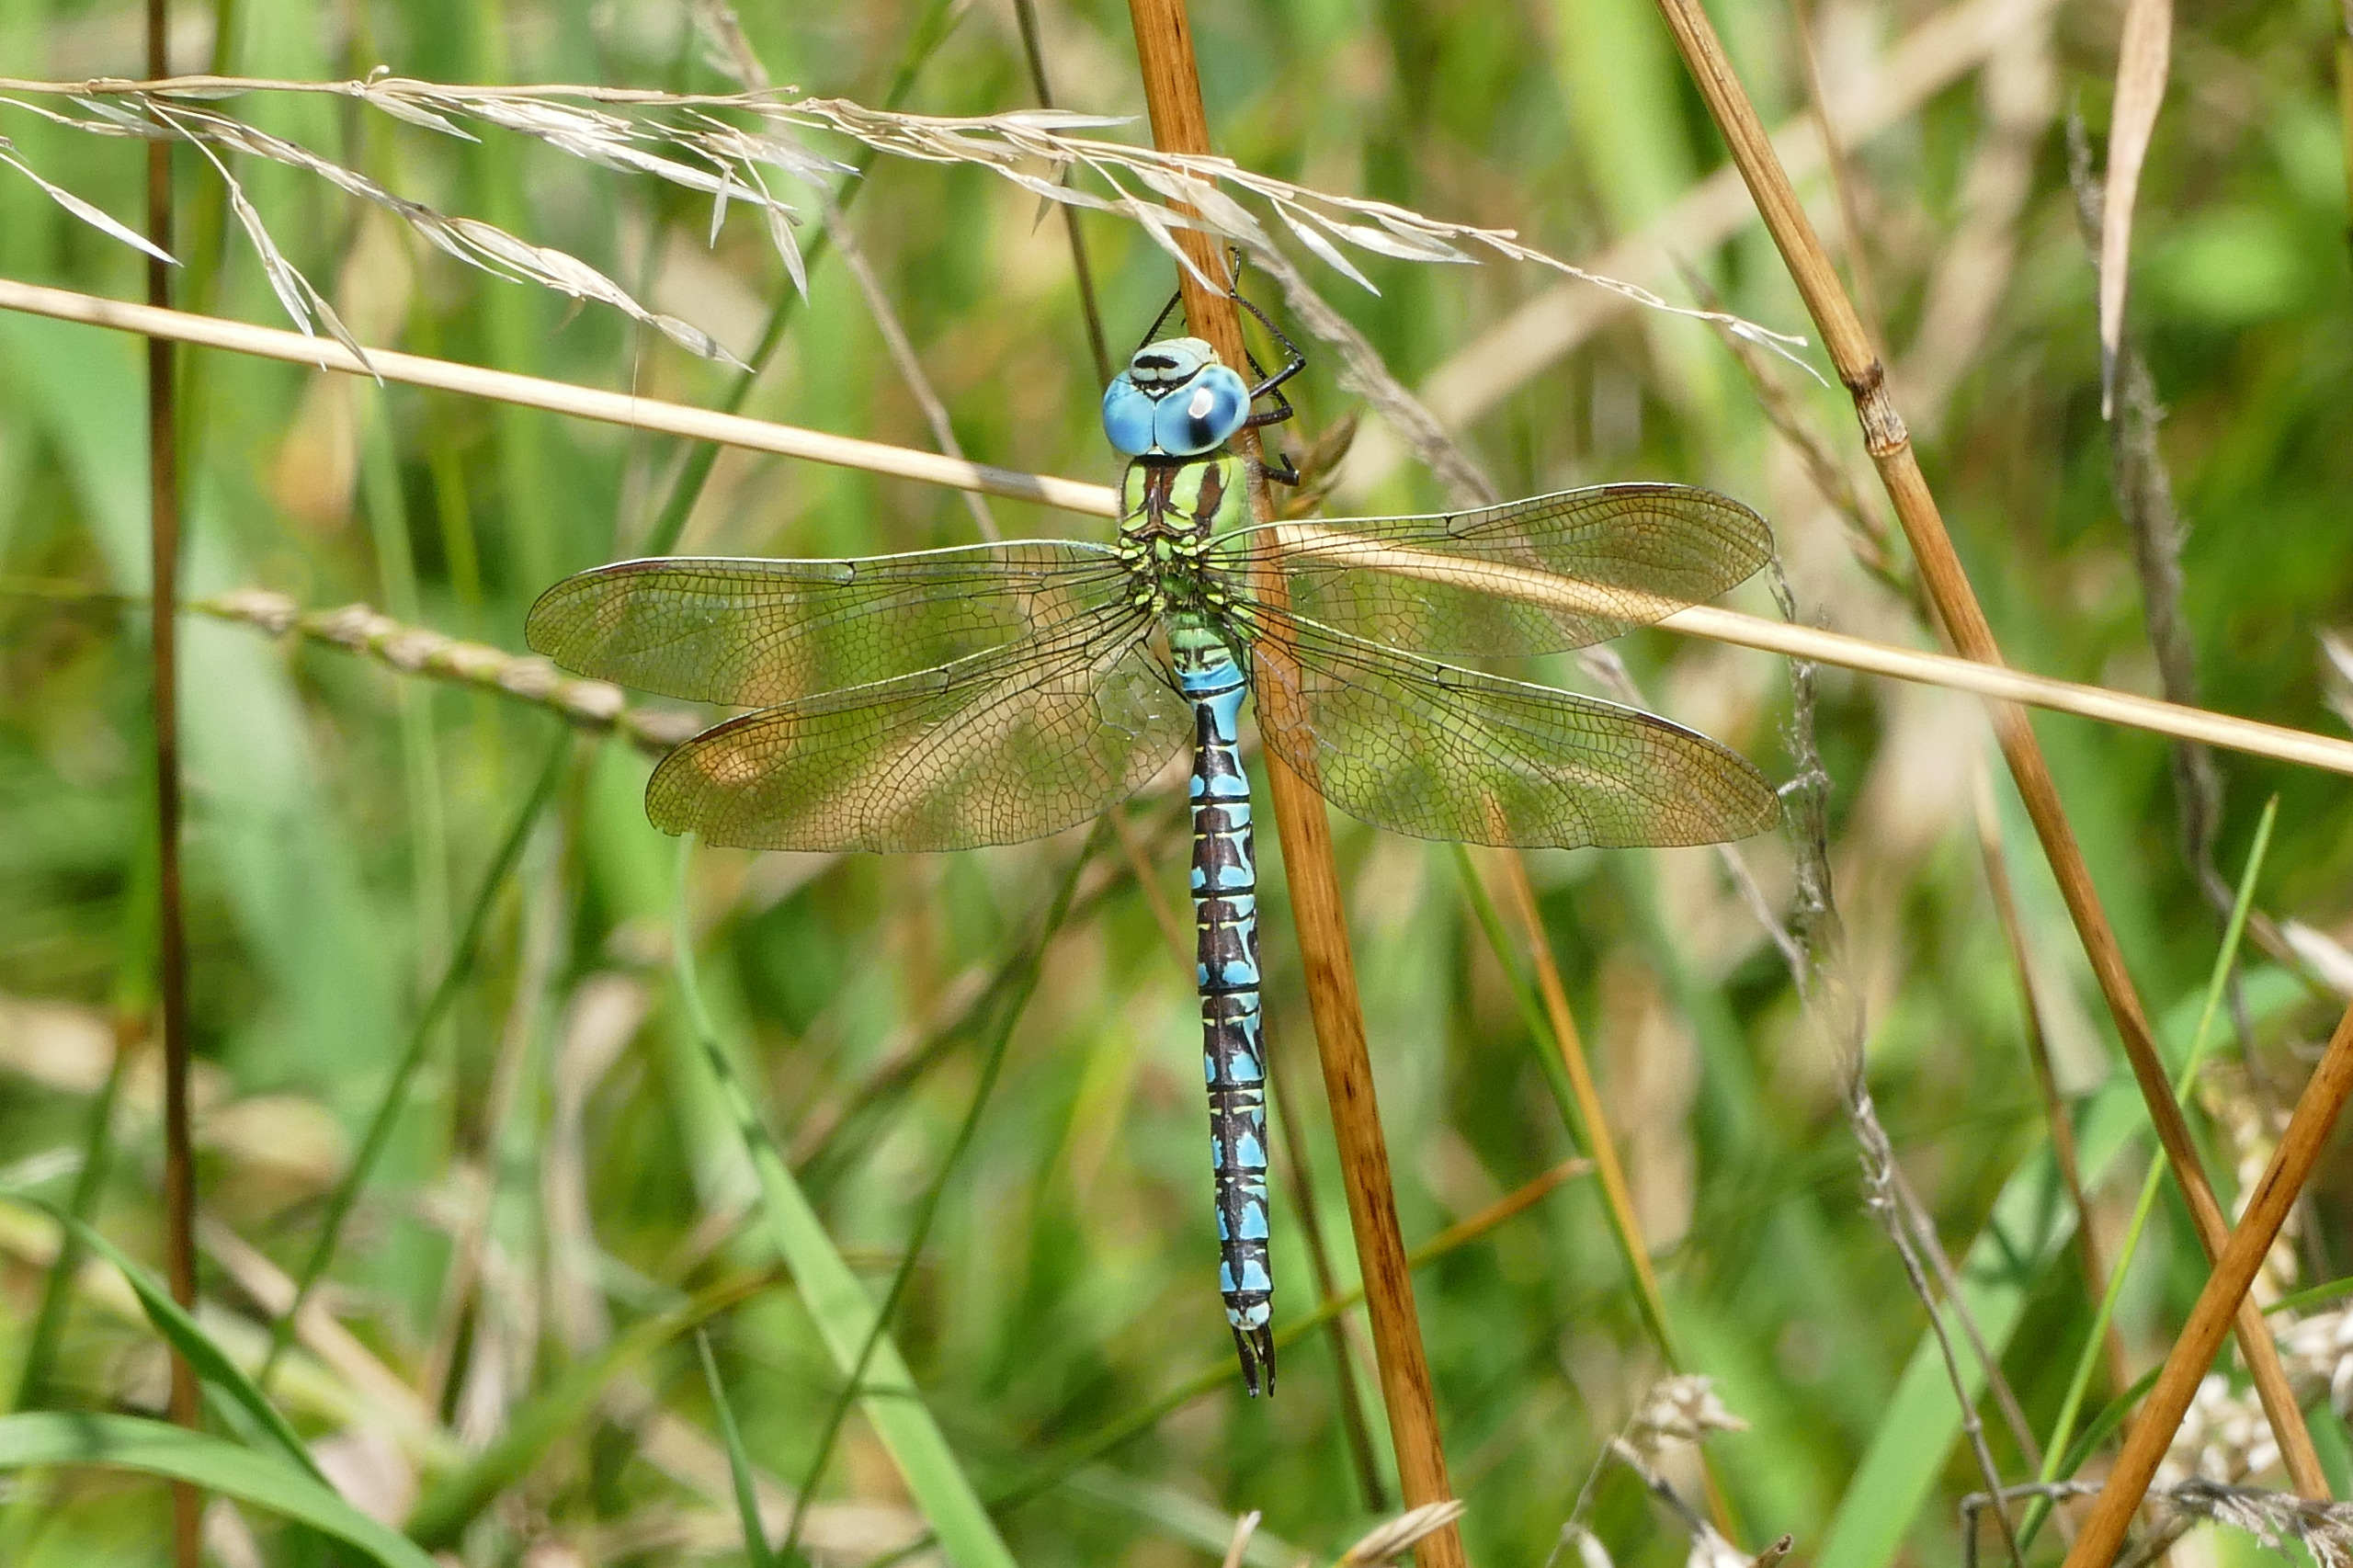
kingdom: Animalia
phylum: Arthropoda
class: Insecta
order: Odonata
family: Aeshnidae
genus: Aeshna
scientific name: Aeshna viridis
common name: Grøn mosaikguldsmed
